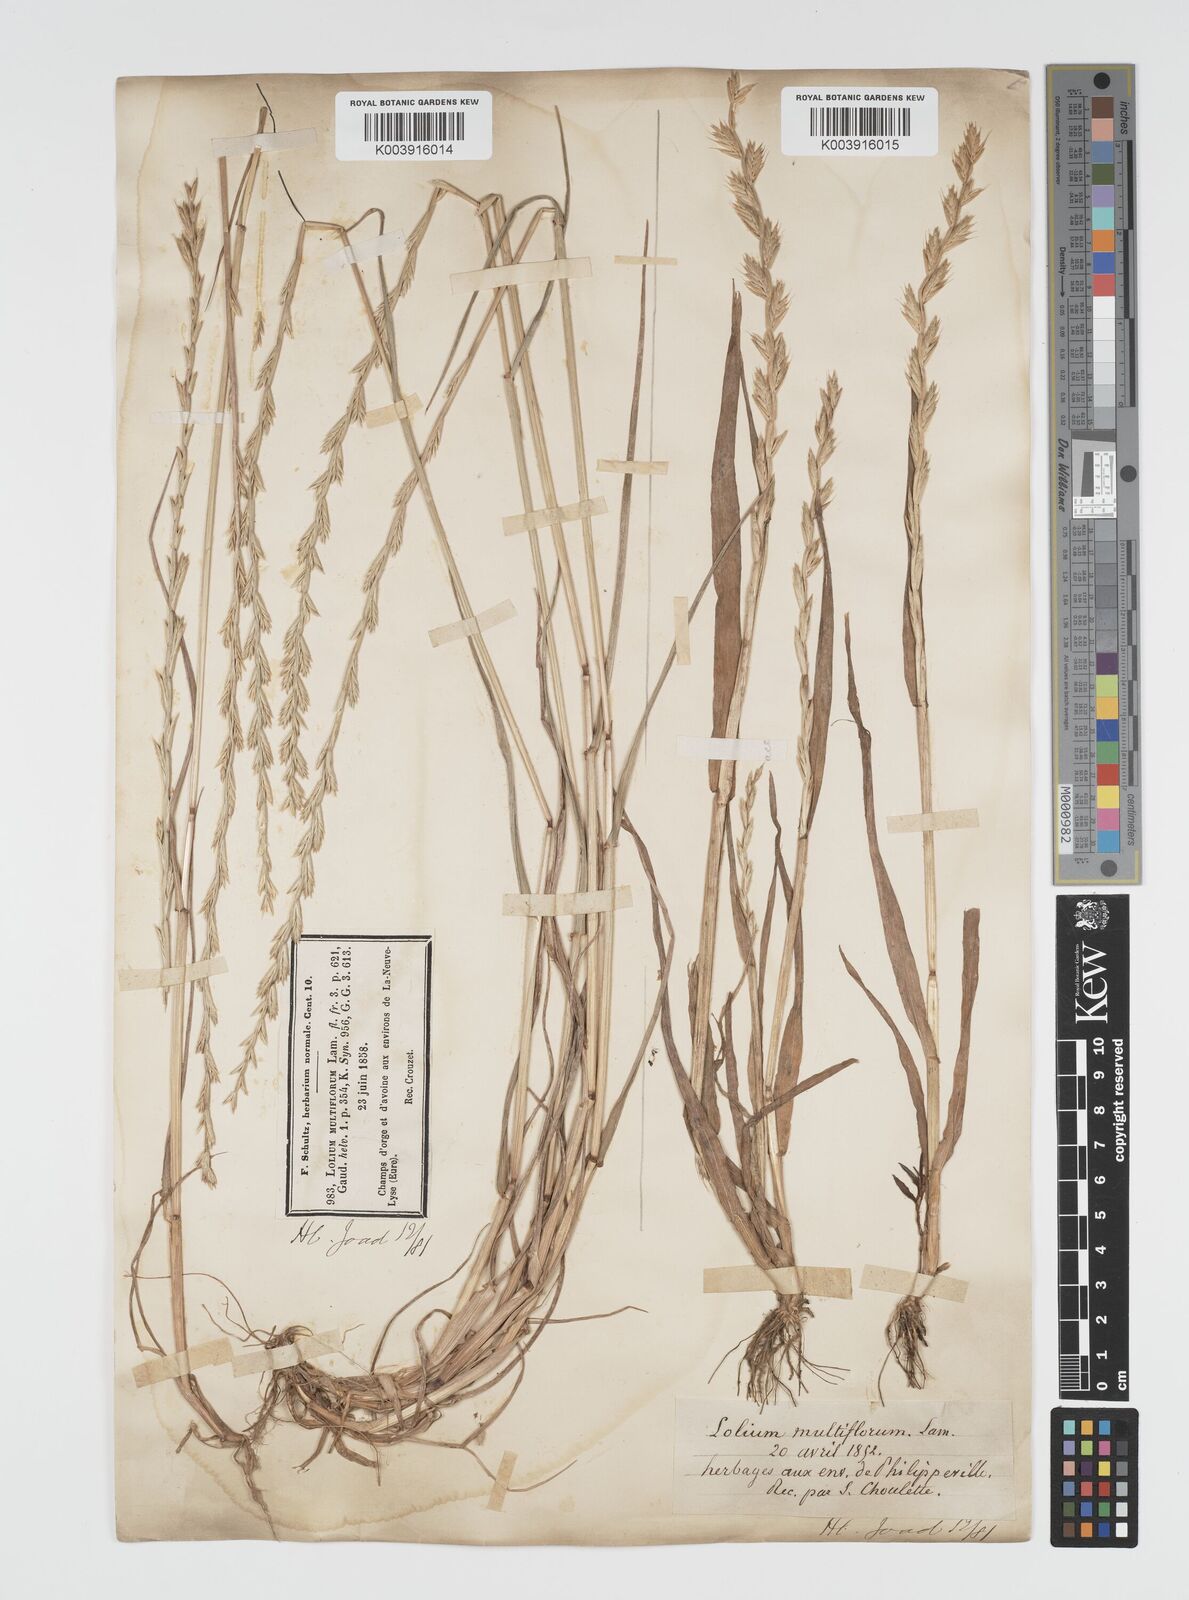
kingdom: Plantae
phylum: Tracheophyta
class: Liliopsida
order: Poales
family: Poaceae
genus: Lolium
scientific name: Lolium multiflorum
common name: Annual ryegrass
